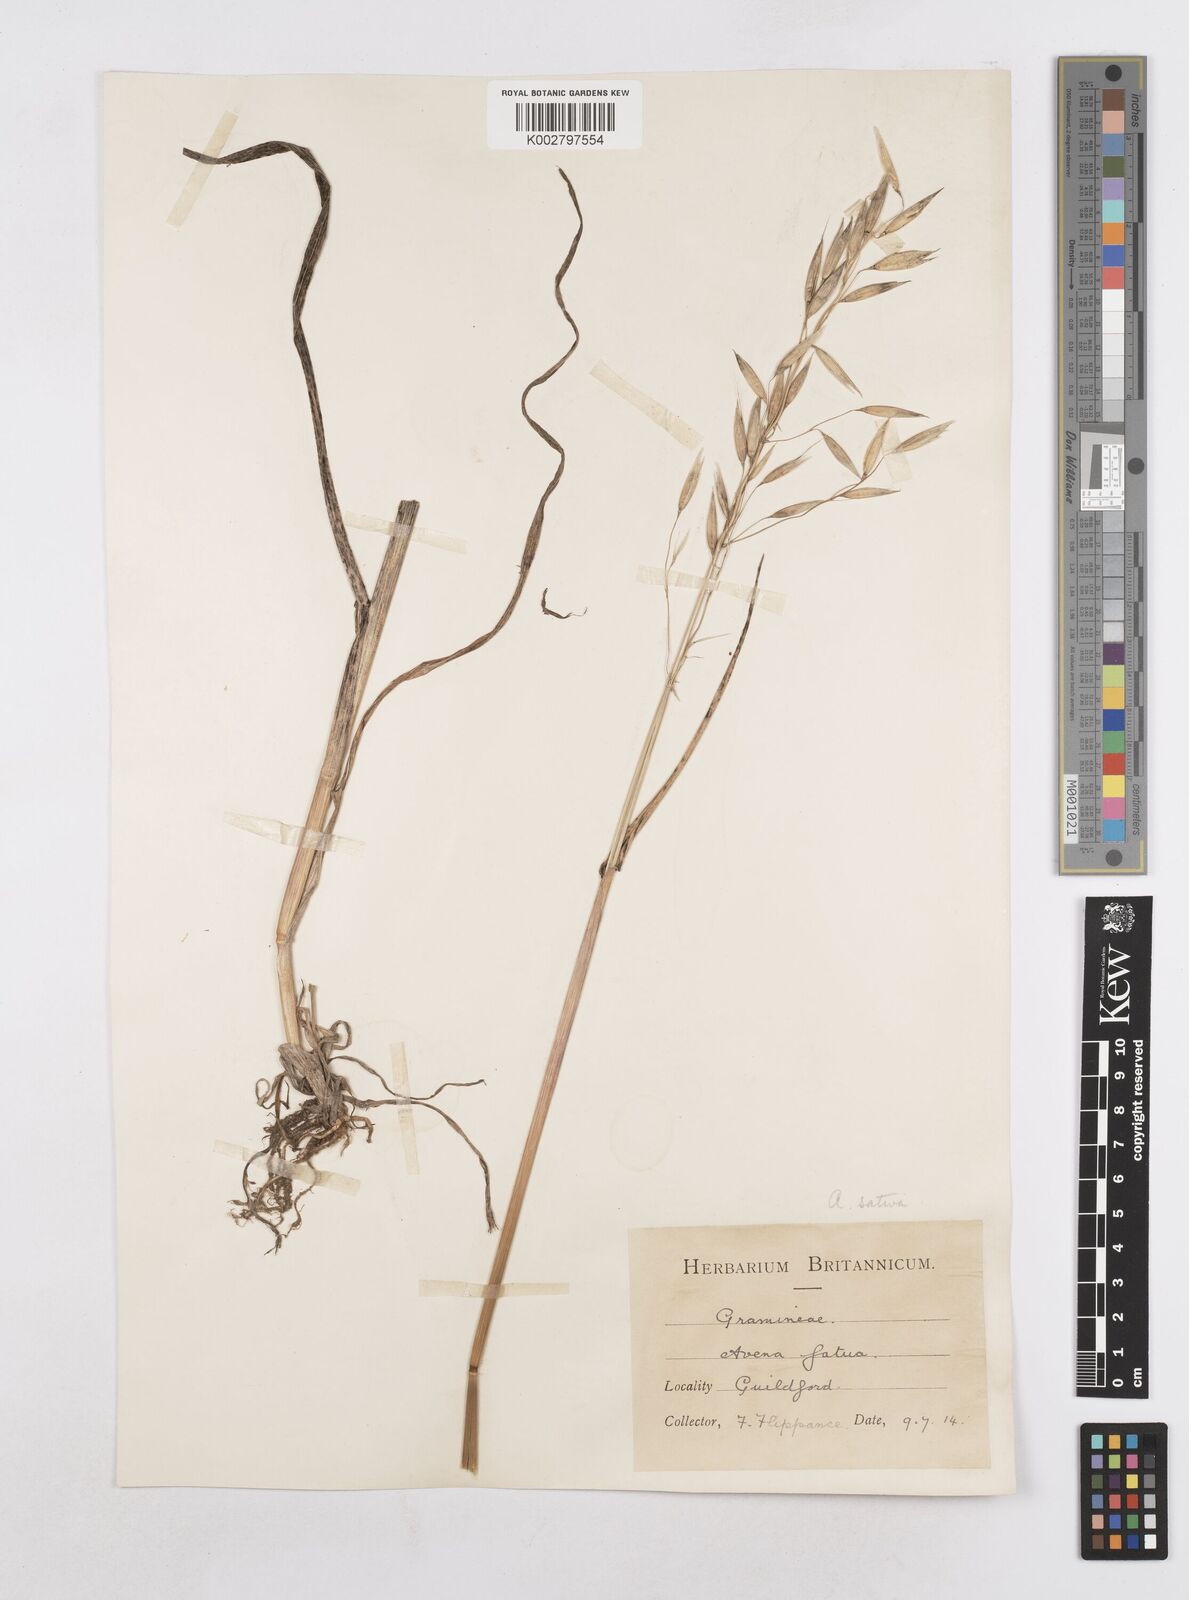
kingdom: Plantae
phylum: Tracheophyta
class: Liliopsida
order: Poales
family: Poaceae
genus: Avena
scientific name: Avena sativa
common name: Oat
